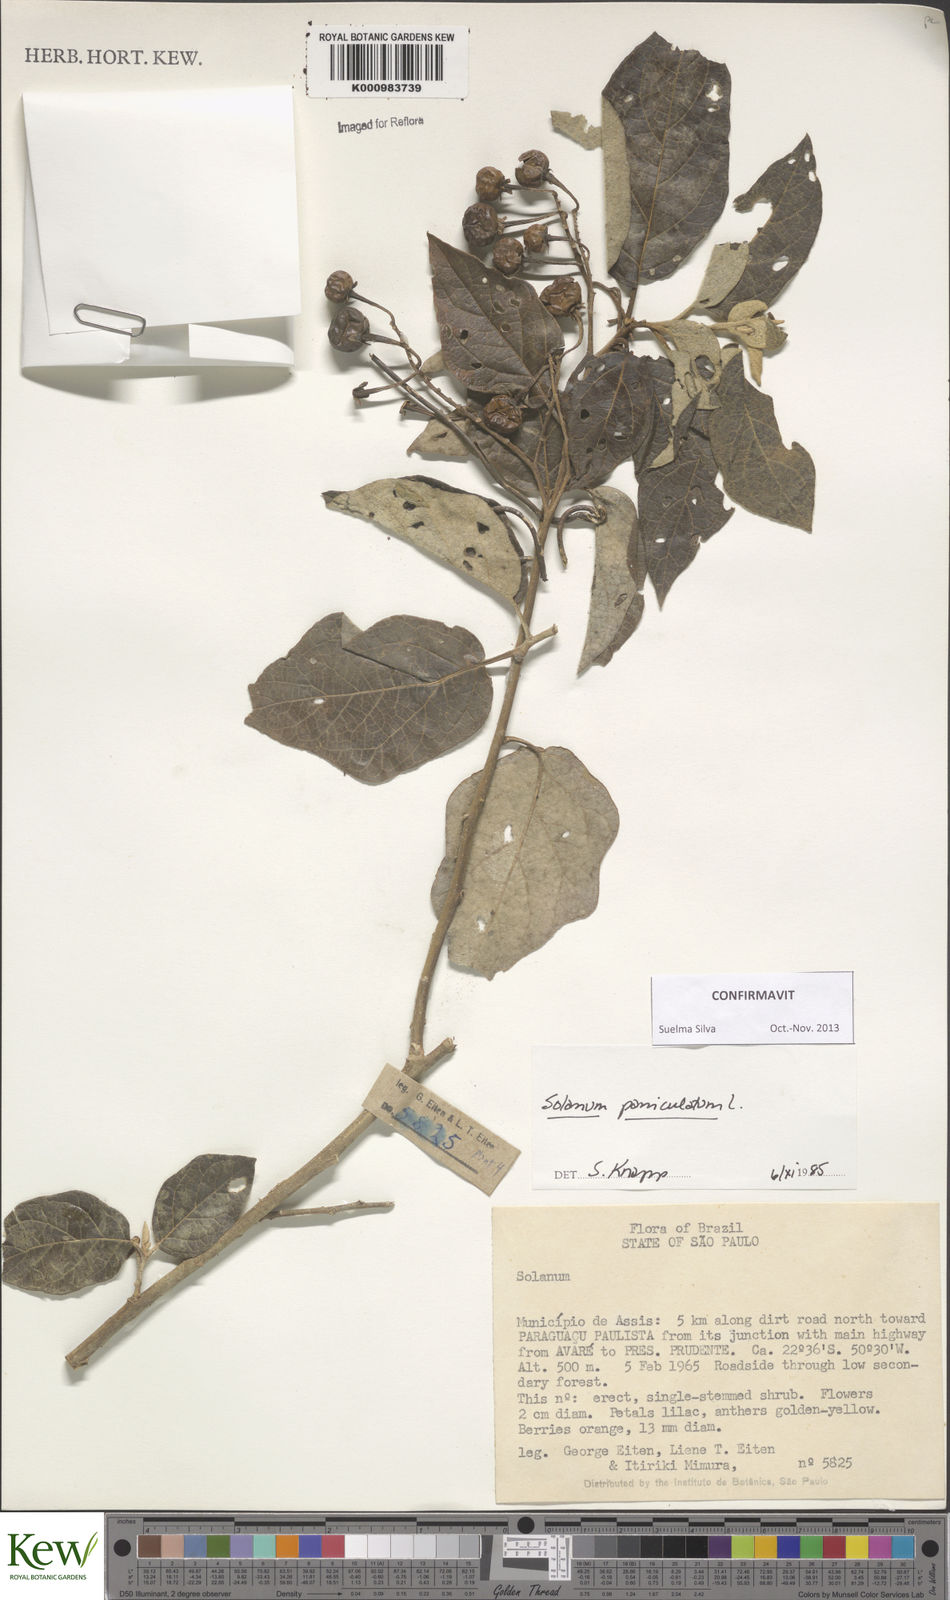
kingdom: Plantae
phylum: Tracheophyta
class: Magnoliopsida
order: Solanales
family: Solanaceae
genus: Solanum
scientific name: Solanum paniculatum
